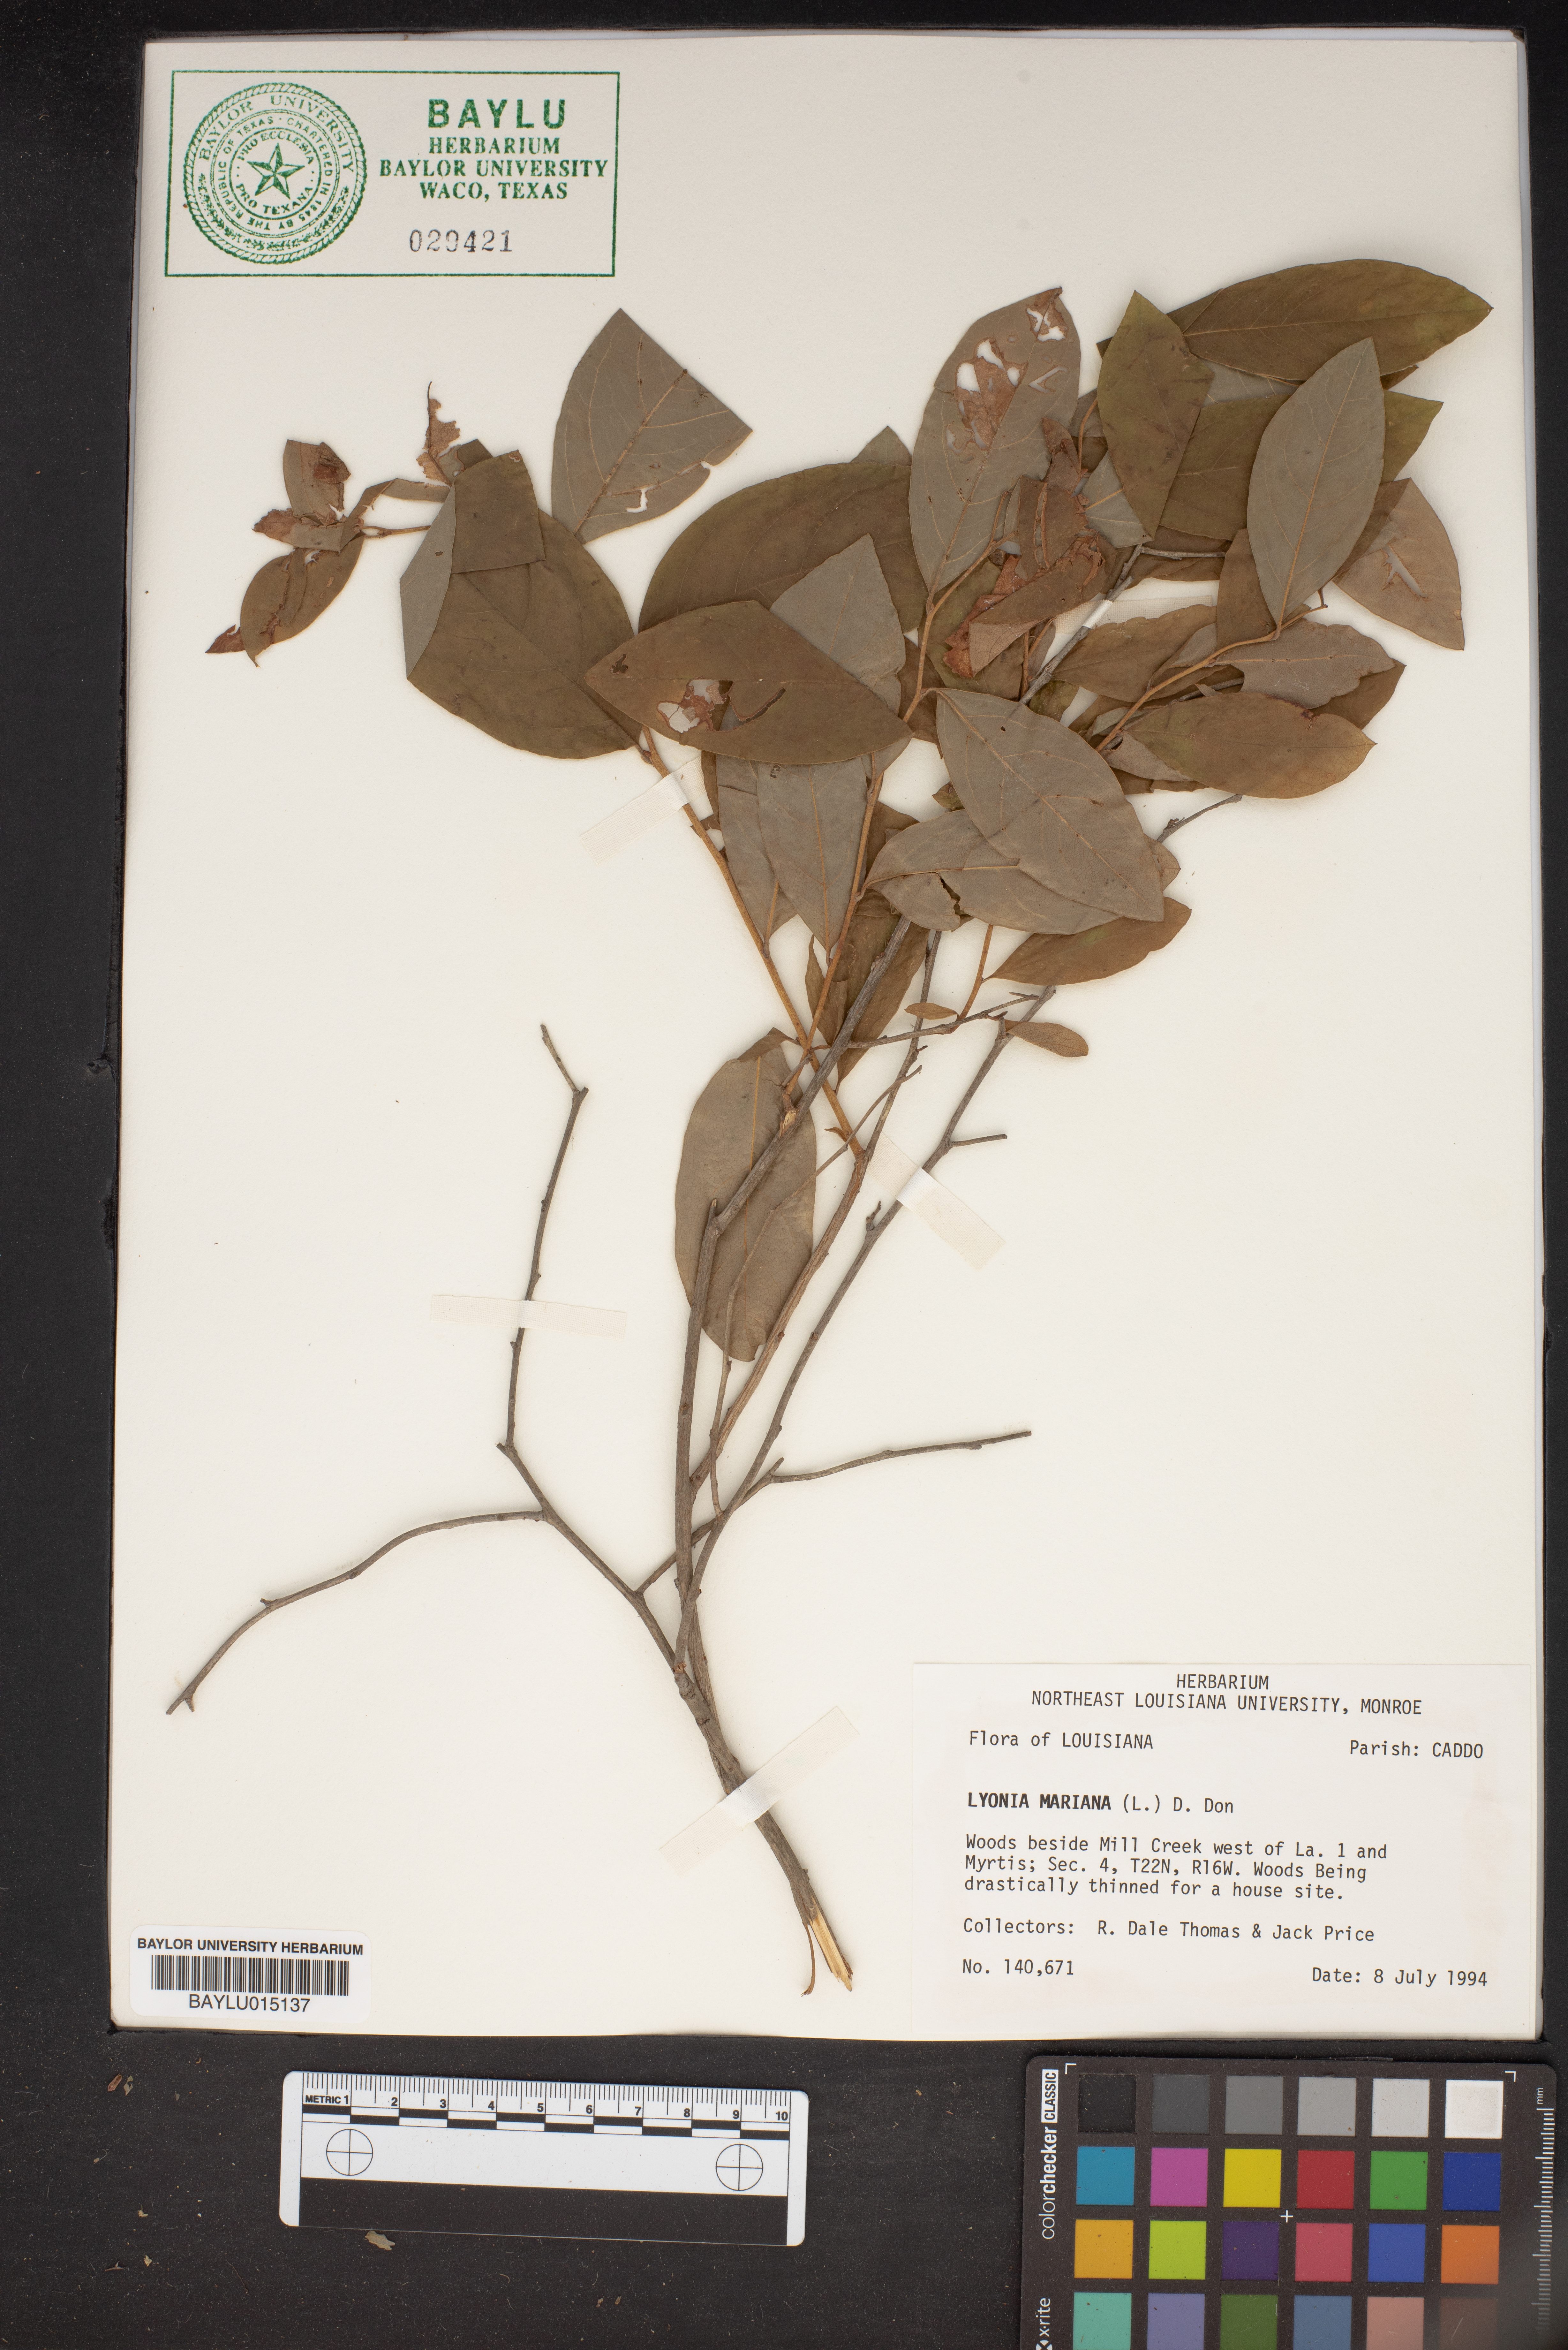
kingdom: Plantae
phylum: Tracheophyta
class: Magnoliopsida
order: Ericales
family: Ericaceae
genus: Lyonia
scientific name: Lyonia mariana
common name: Staggerbush
